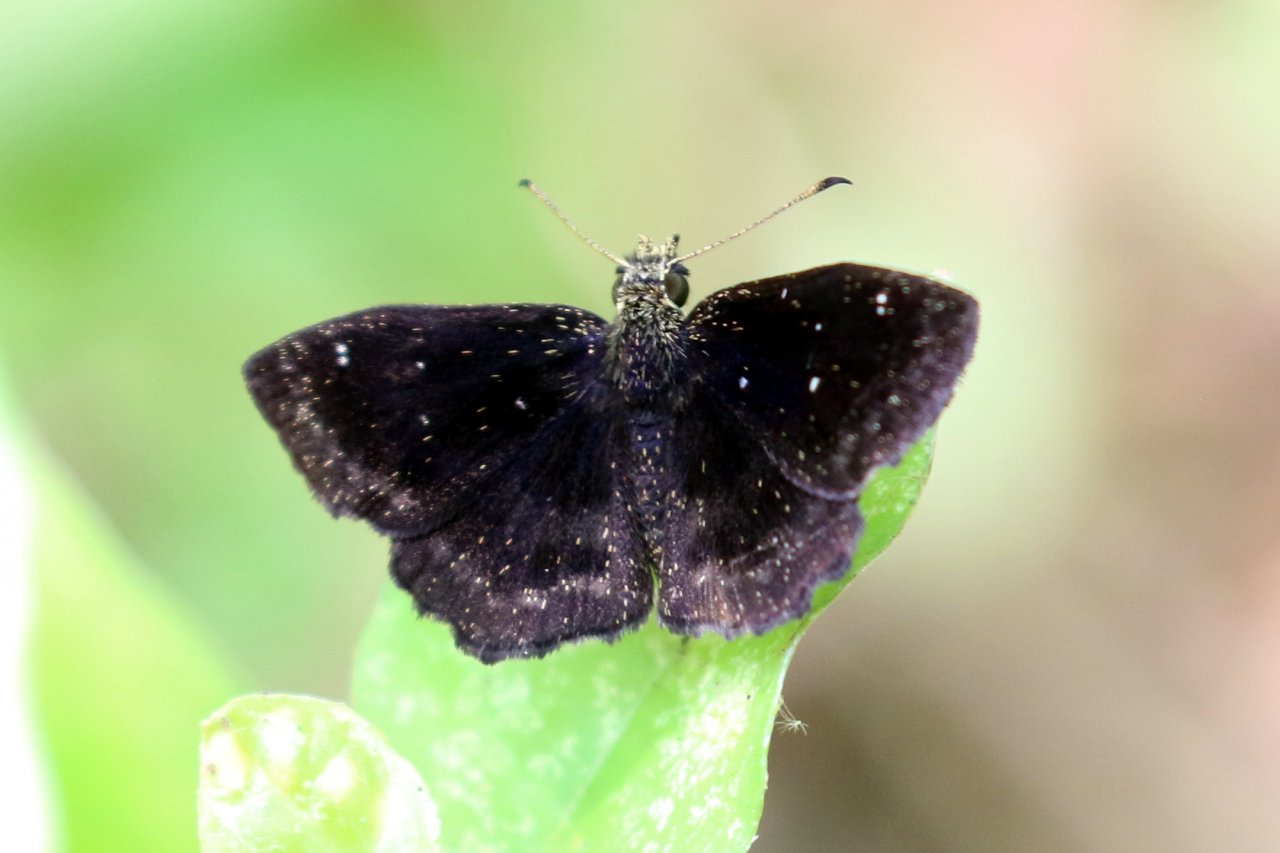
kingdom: Animalia
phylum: Arthropoda
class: Insecta
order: Lepidoptera
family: Hesperiidae
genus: Staphylus
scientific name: Staphylus mazans
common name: Mazans Scallopwing
